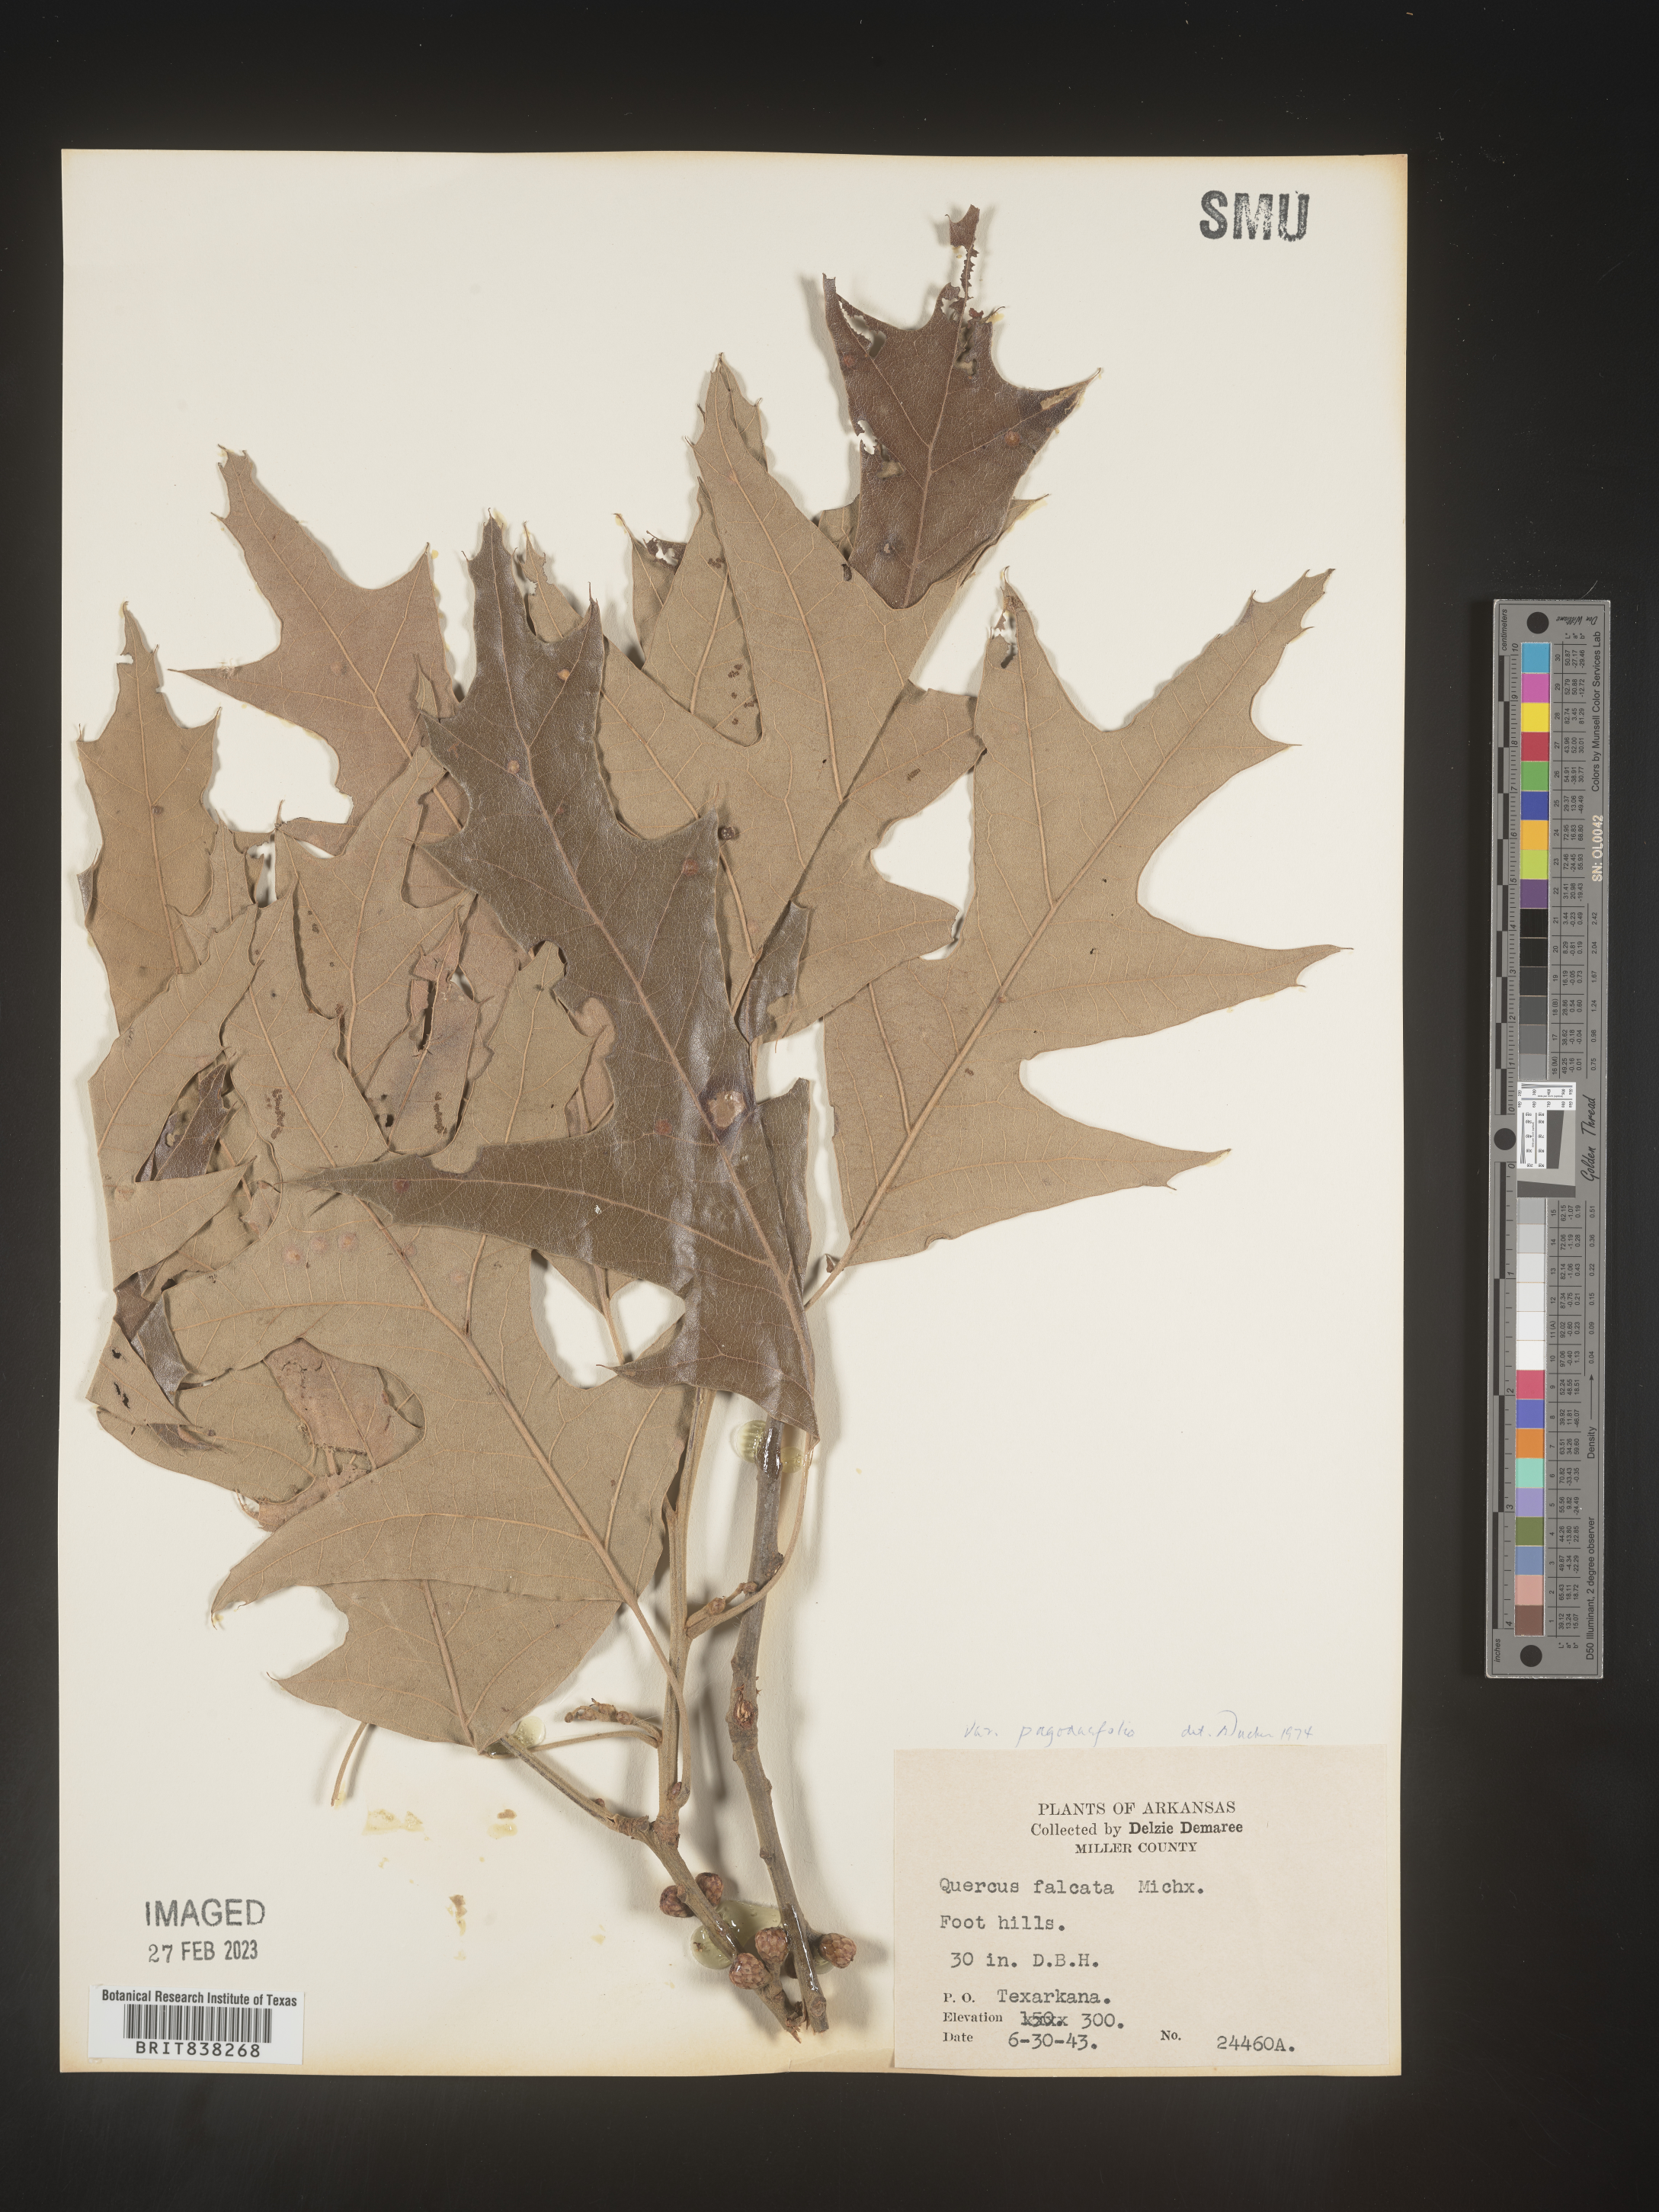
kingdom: Plantae
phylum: Tracheophyta
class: Magnoliopsida
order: Fagales
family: Fagaceae
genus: Quercus
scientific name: Quercus falcata
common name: Southern red oak
